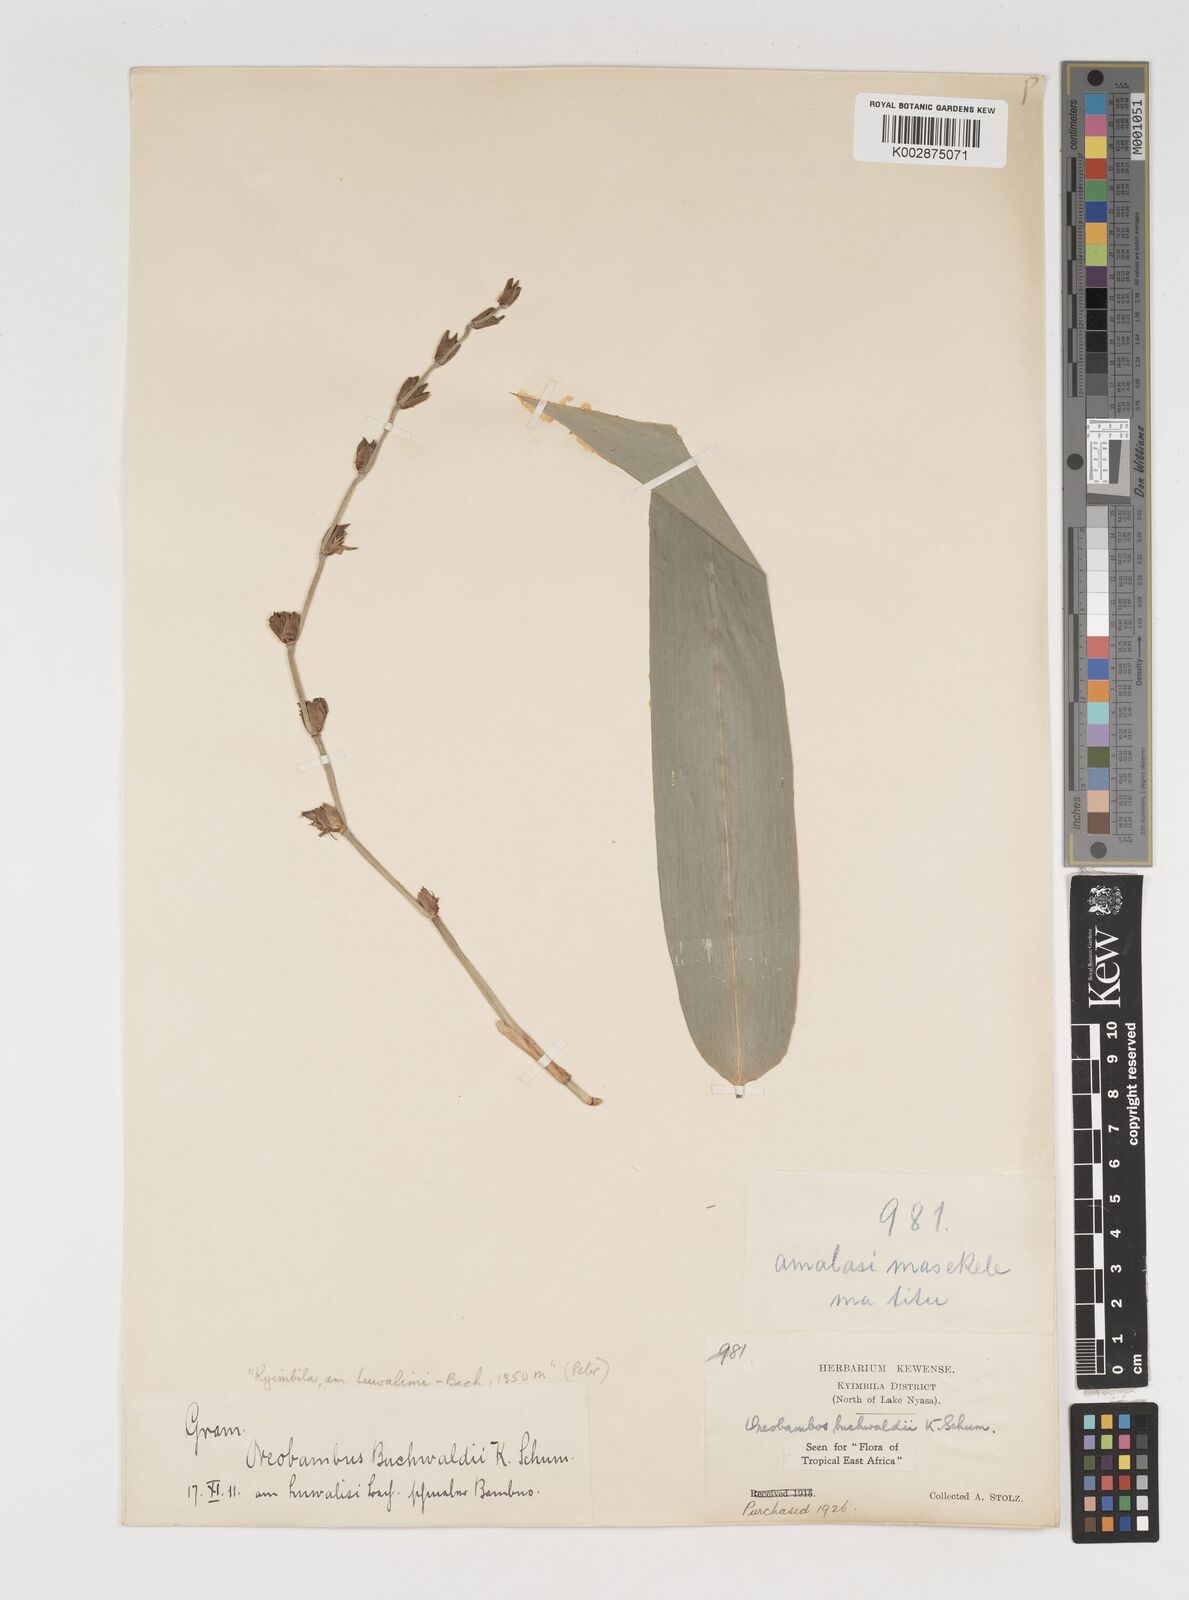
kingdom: Plantae
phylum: Tracheophyta
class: Liliopsida
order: Poales
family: Poaceae
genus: Oreobambos
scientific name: Oreobambos buchwaldii
